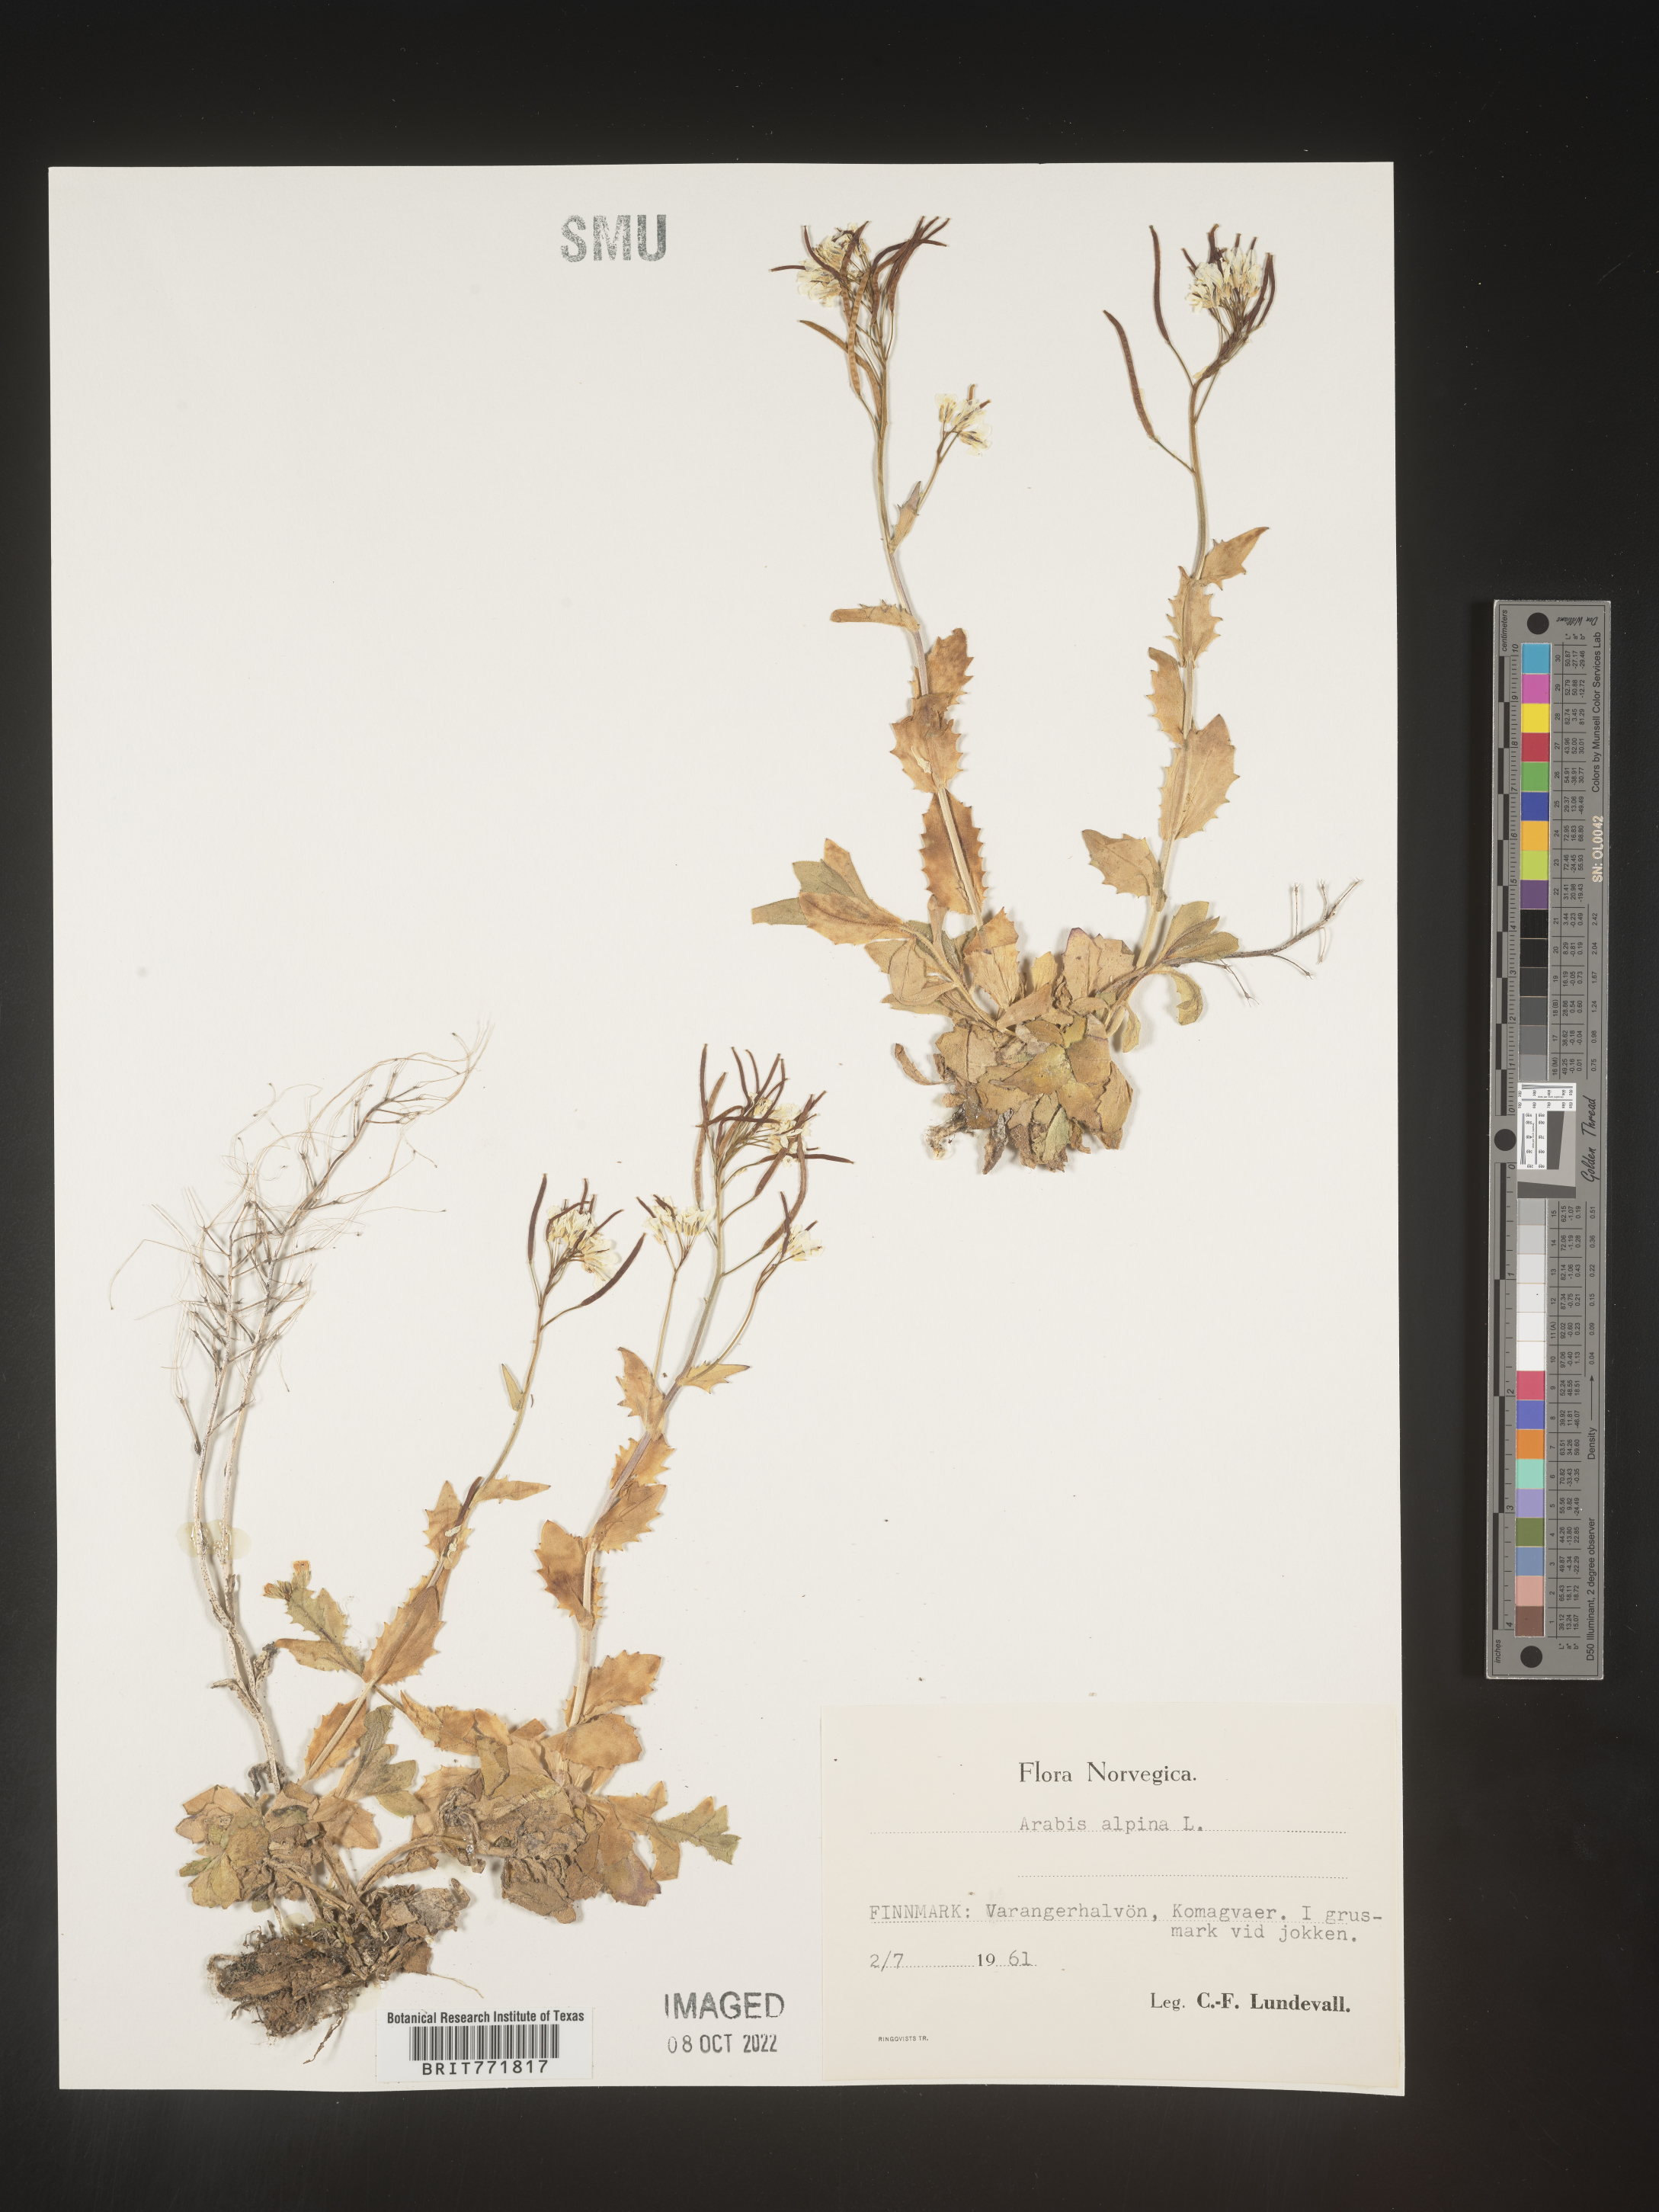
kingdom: Plantae
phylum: Tracheophyta
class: Magnoliopsida
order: Brassicales
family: Brassicaceae
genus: Arabis
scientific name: Arabis
